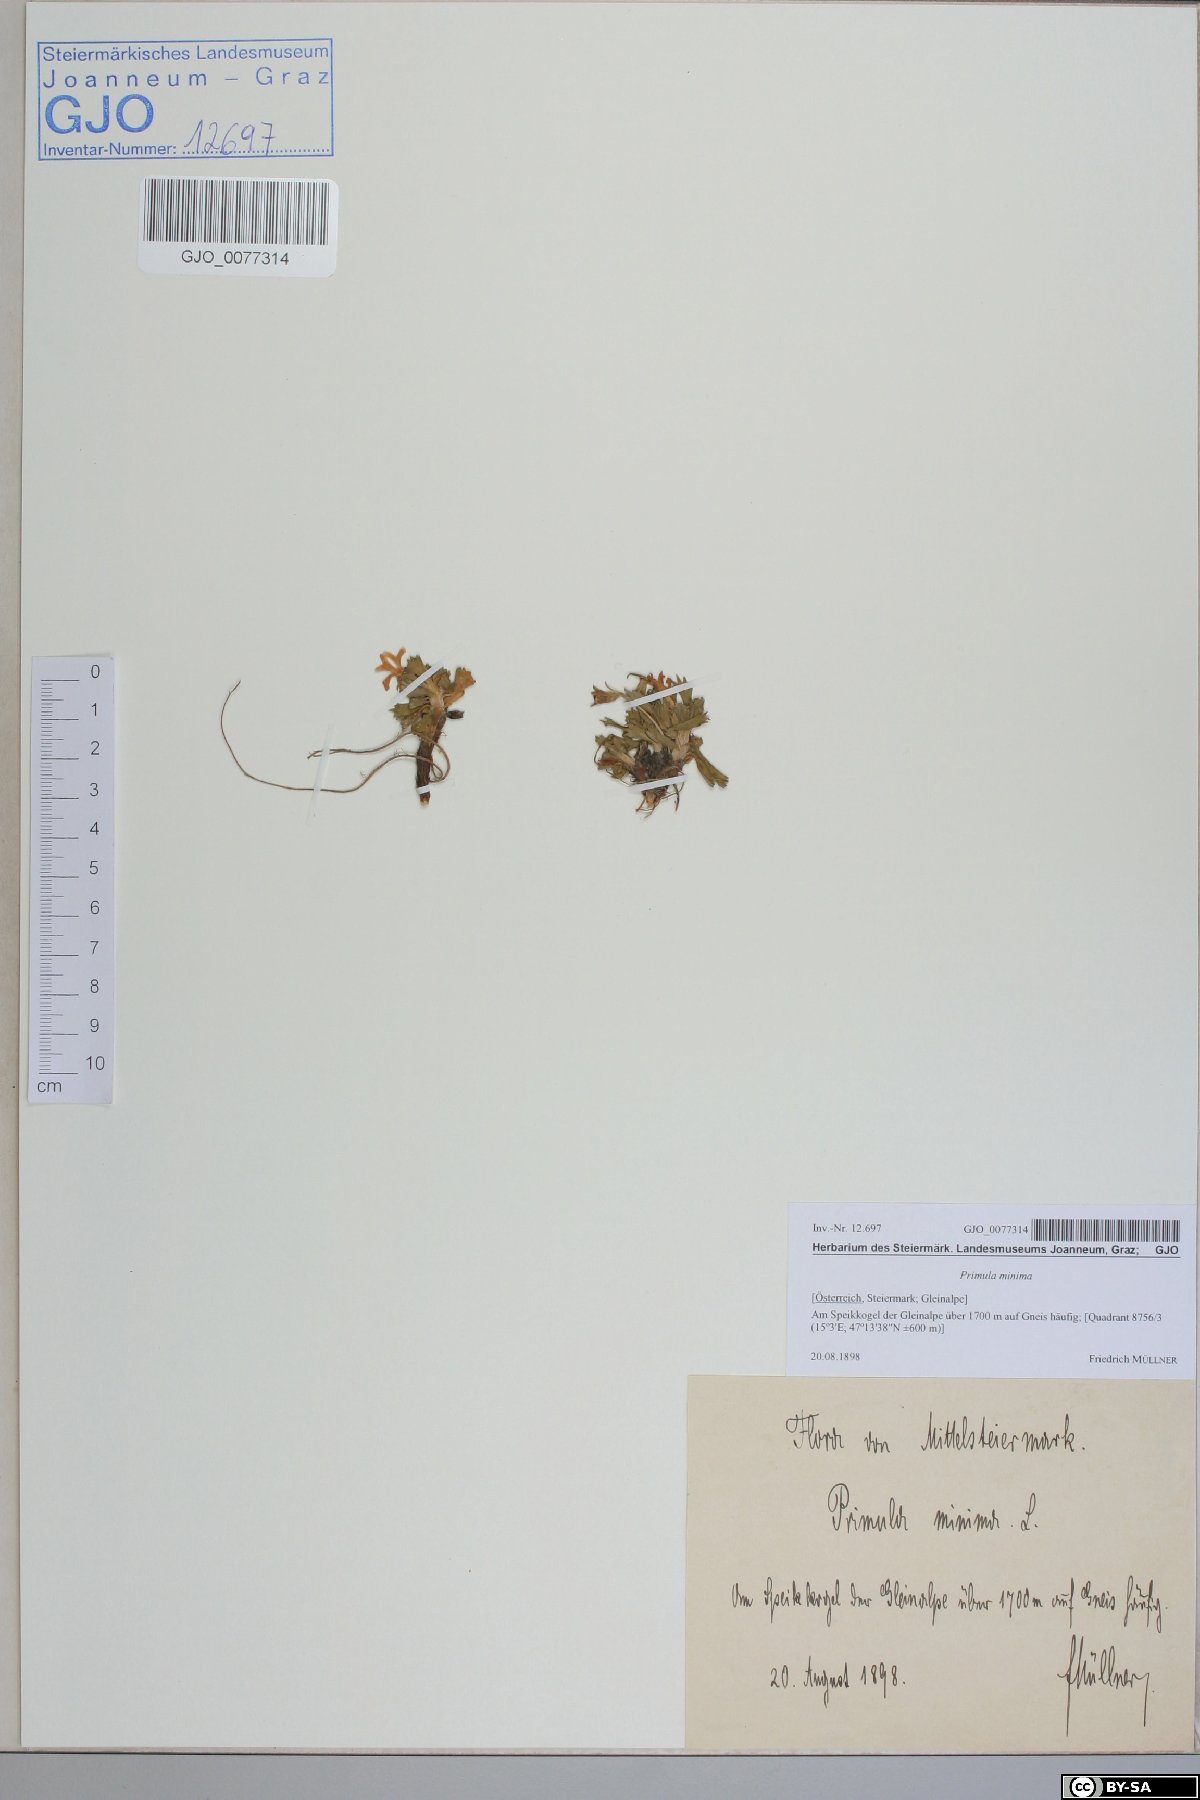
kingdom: Plantae
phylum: Tracheophyta
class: Magnoliopsida
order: Ericales
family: Primulaceae
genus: Primula
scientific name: Primula minima
